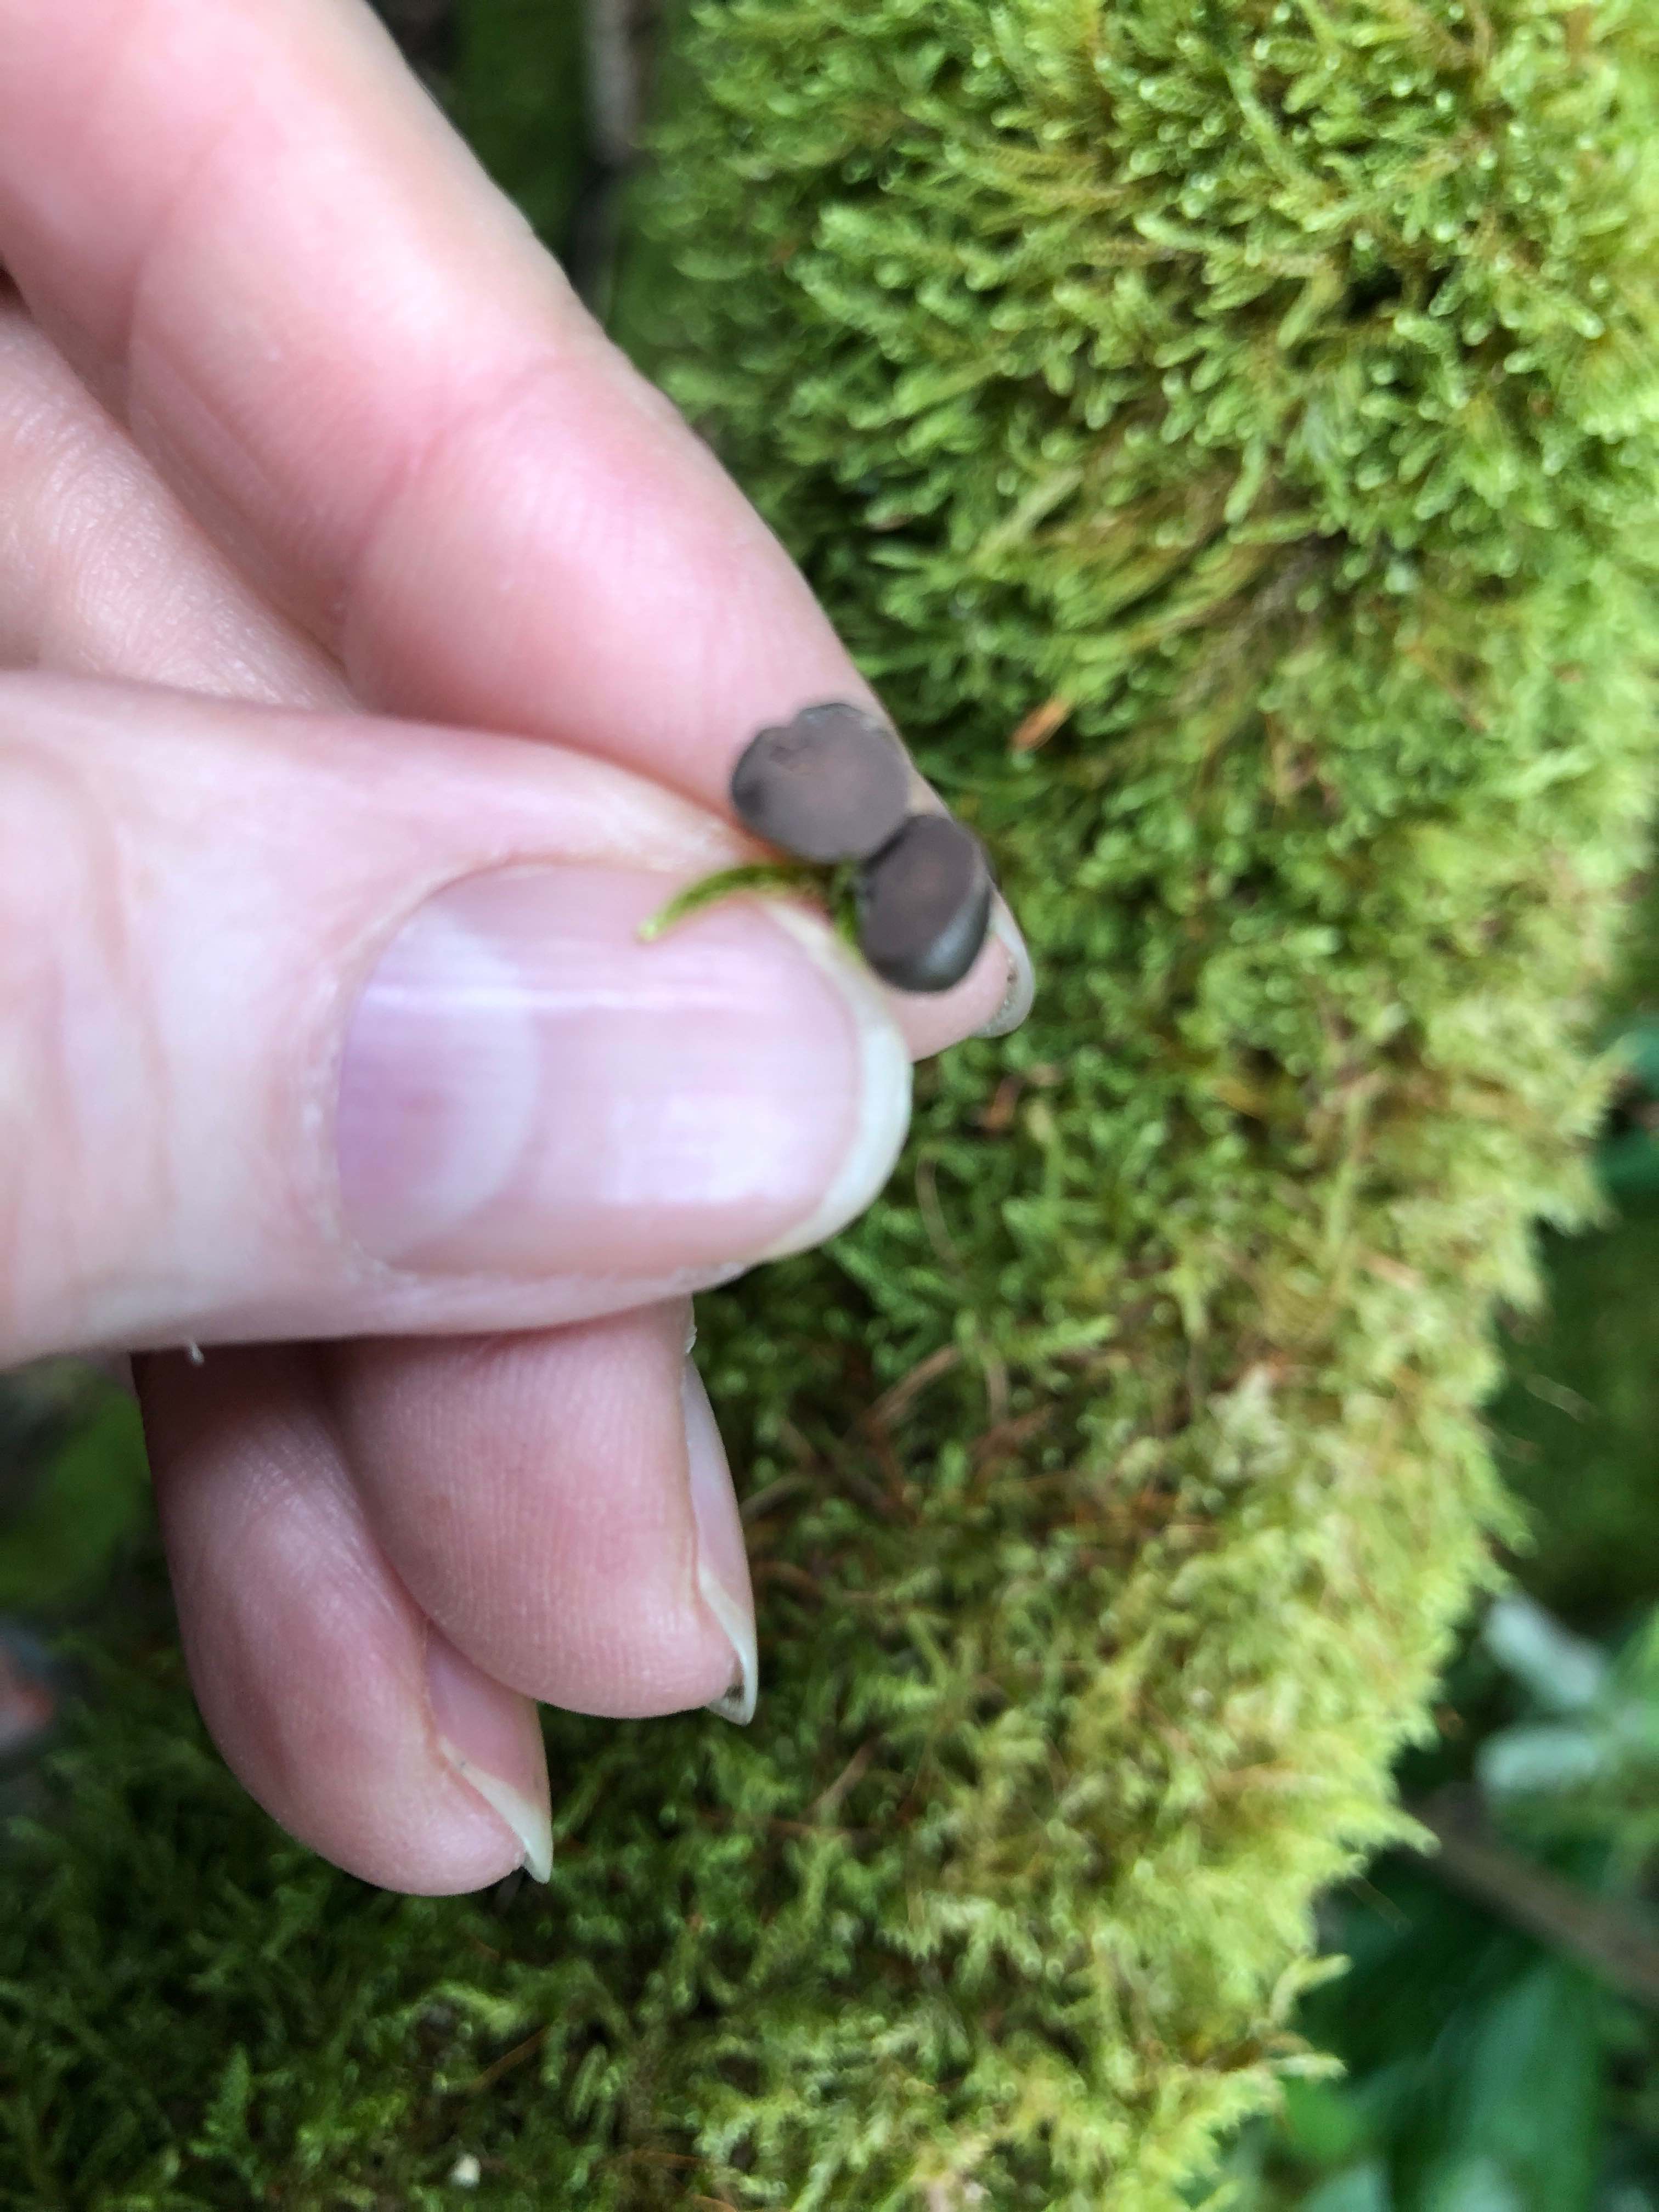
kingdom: Protozoa
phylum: Mycetozoa
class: Myxomycetes
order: Cribrariales
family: Tubiferaceae
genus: Lycogala
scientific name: Lycogala epidendrum
